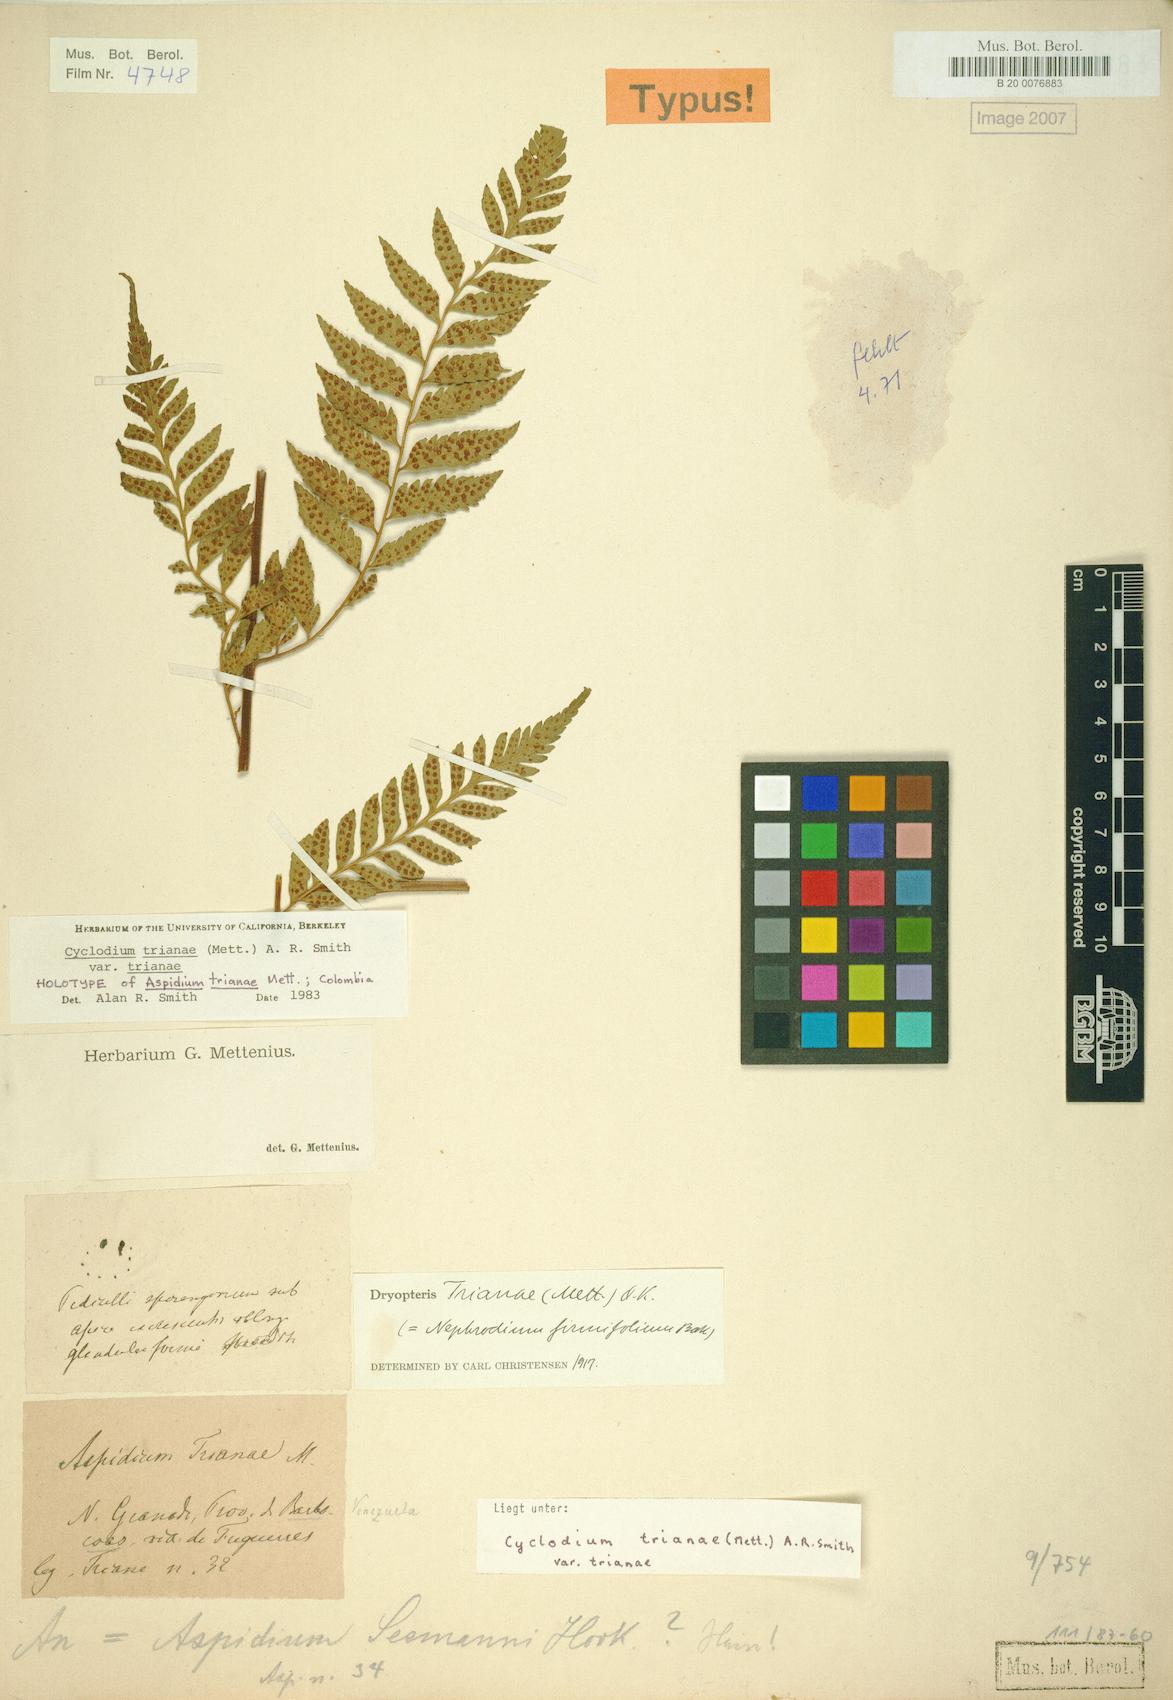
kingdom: Plantae
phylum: Tracheophyta
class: Polypodiopsida
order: Polypodiales
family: Dryopteridaceae
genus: Cyclodium
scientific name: Cyclodium trianae
